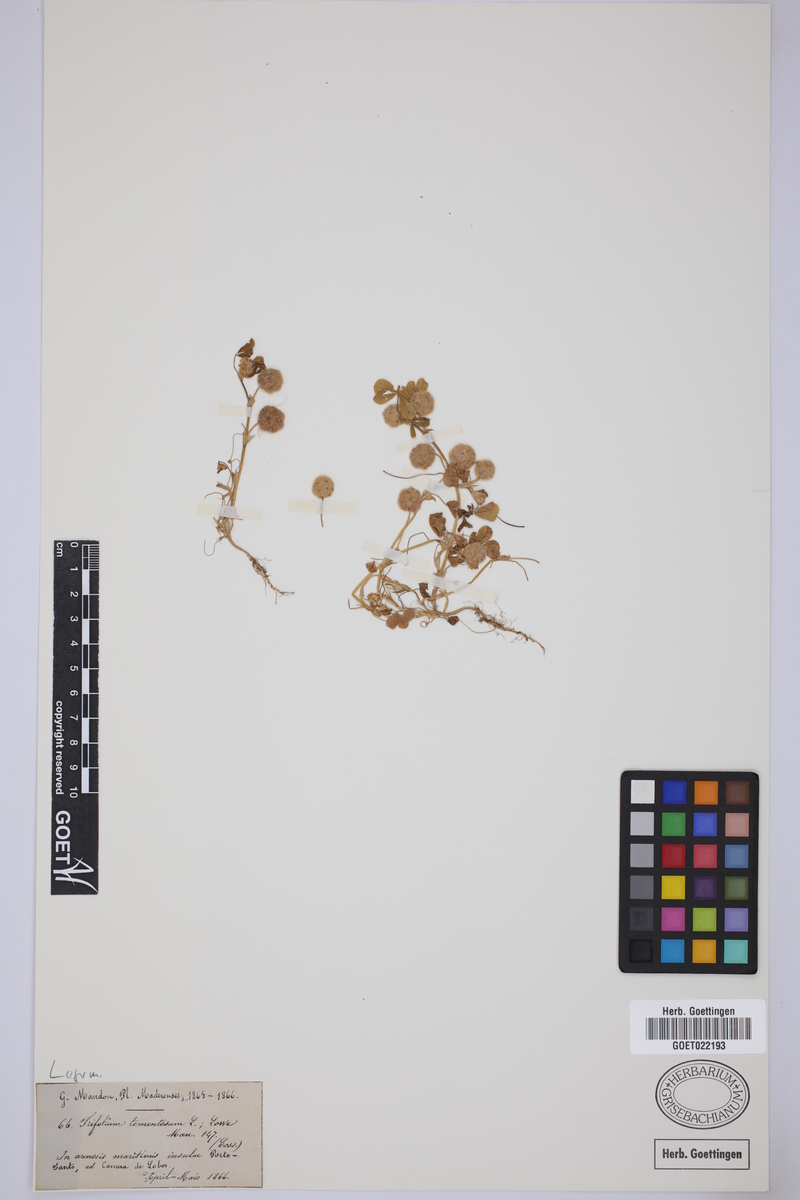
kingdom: Plantae
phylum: Tracheophyta
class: Magnoliopsida
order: Fabales
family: Fabaceae
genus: Trifolium
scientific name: Trifolium tomentosum
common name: Woolly clover
